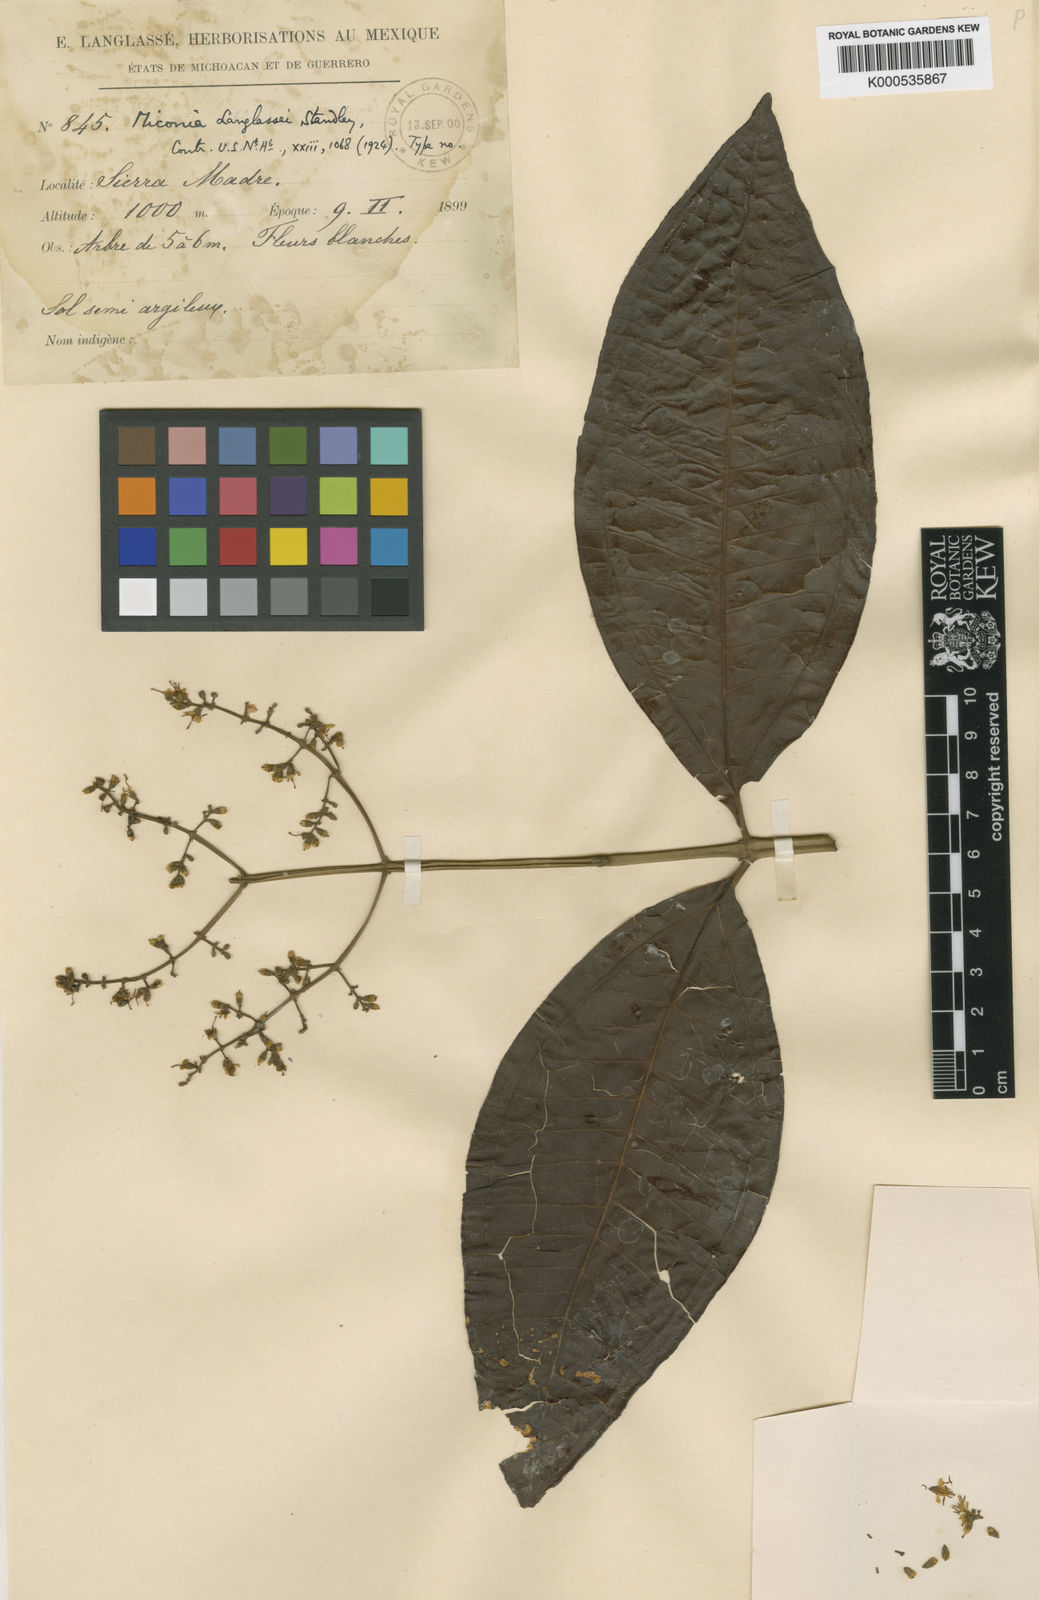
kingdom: Plantae
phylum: Tracheophyta
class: Magnoliopsida
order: Myrtales
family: Melastomataceae
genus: Miconia
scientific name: Miconia chamissois
